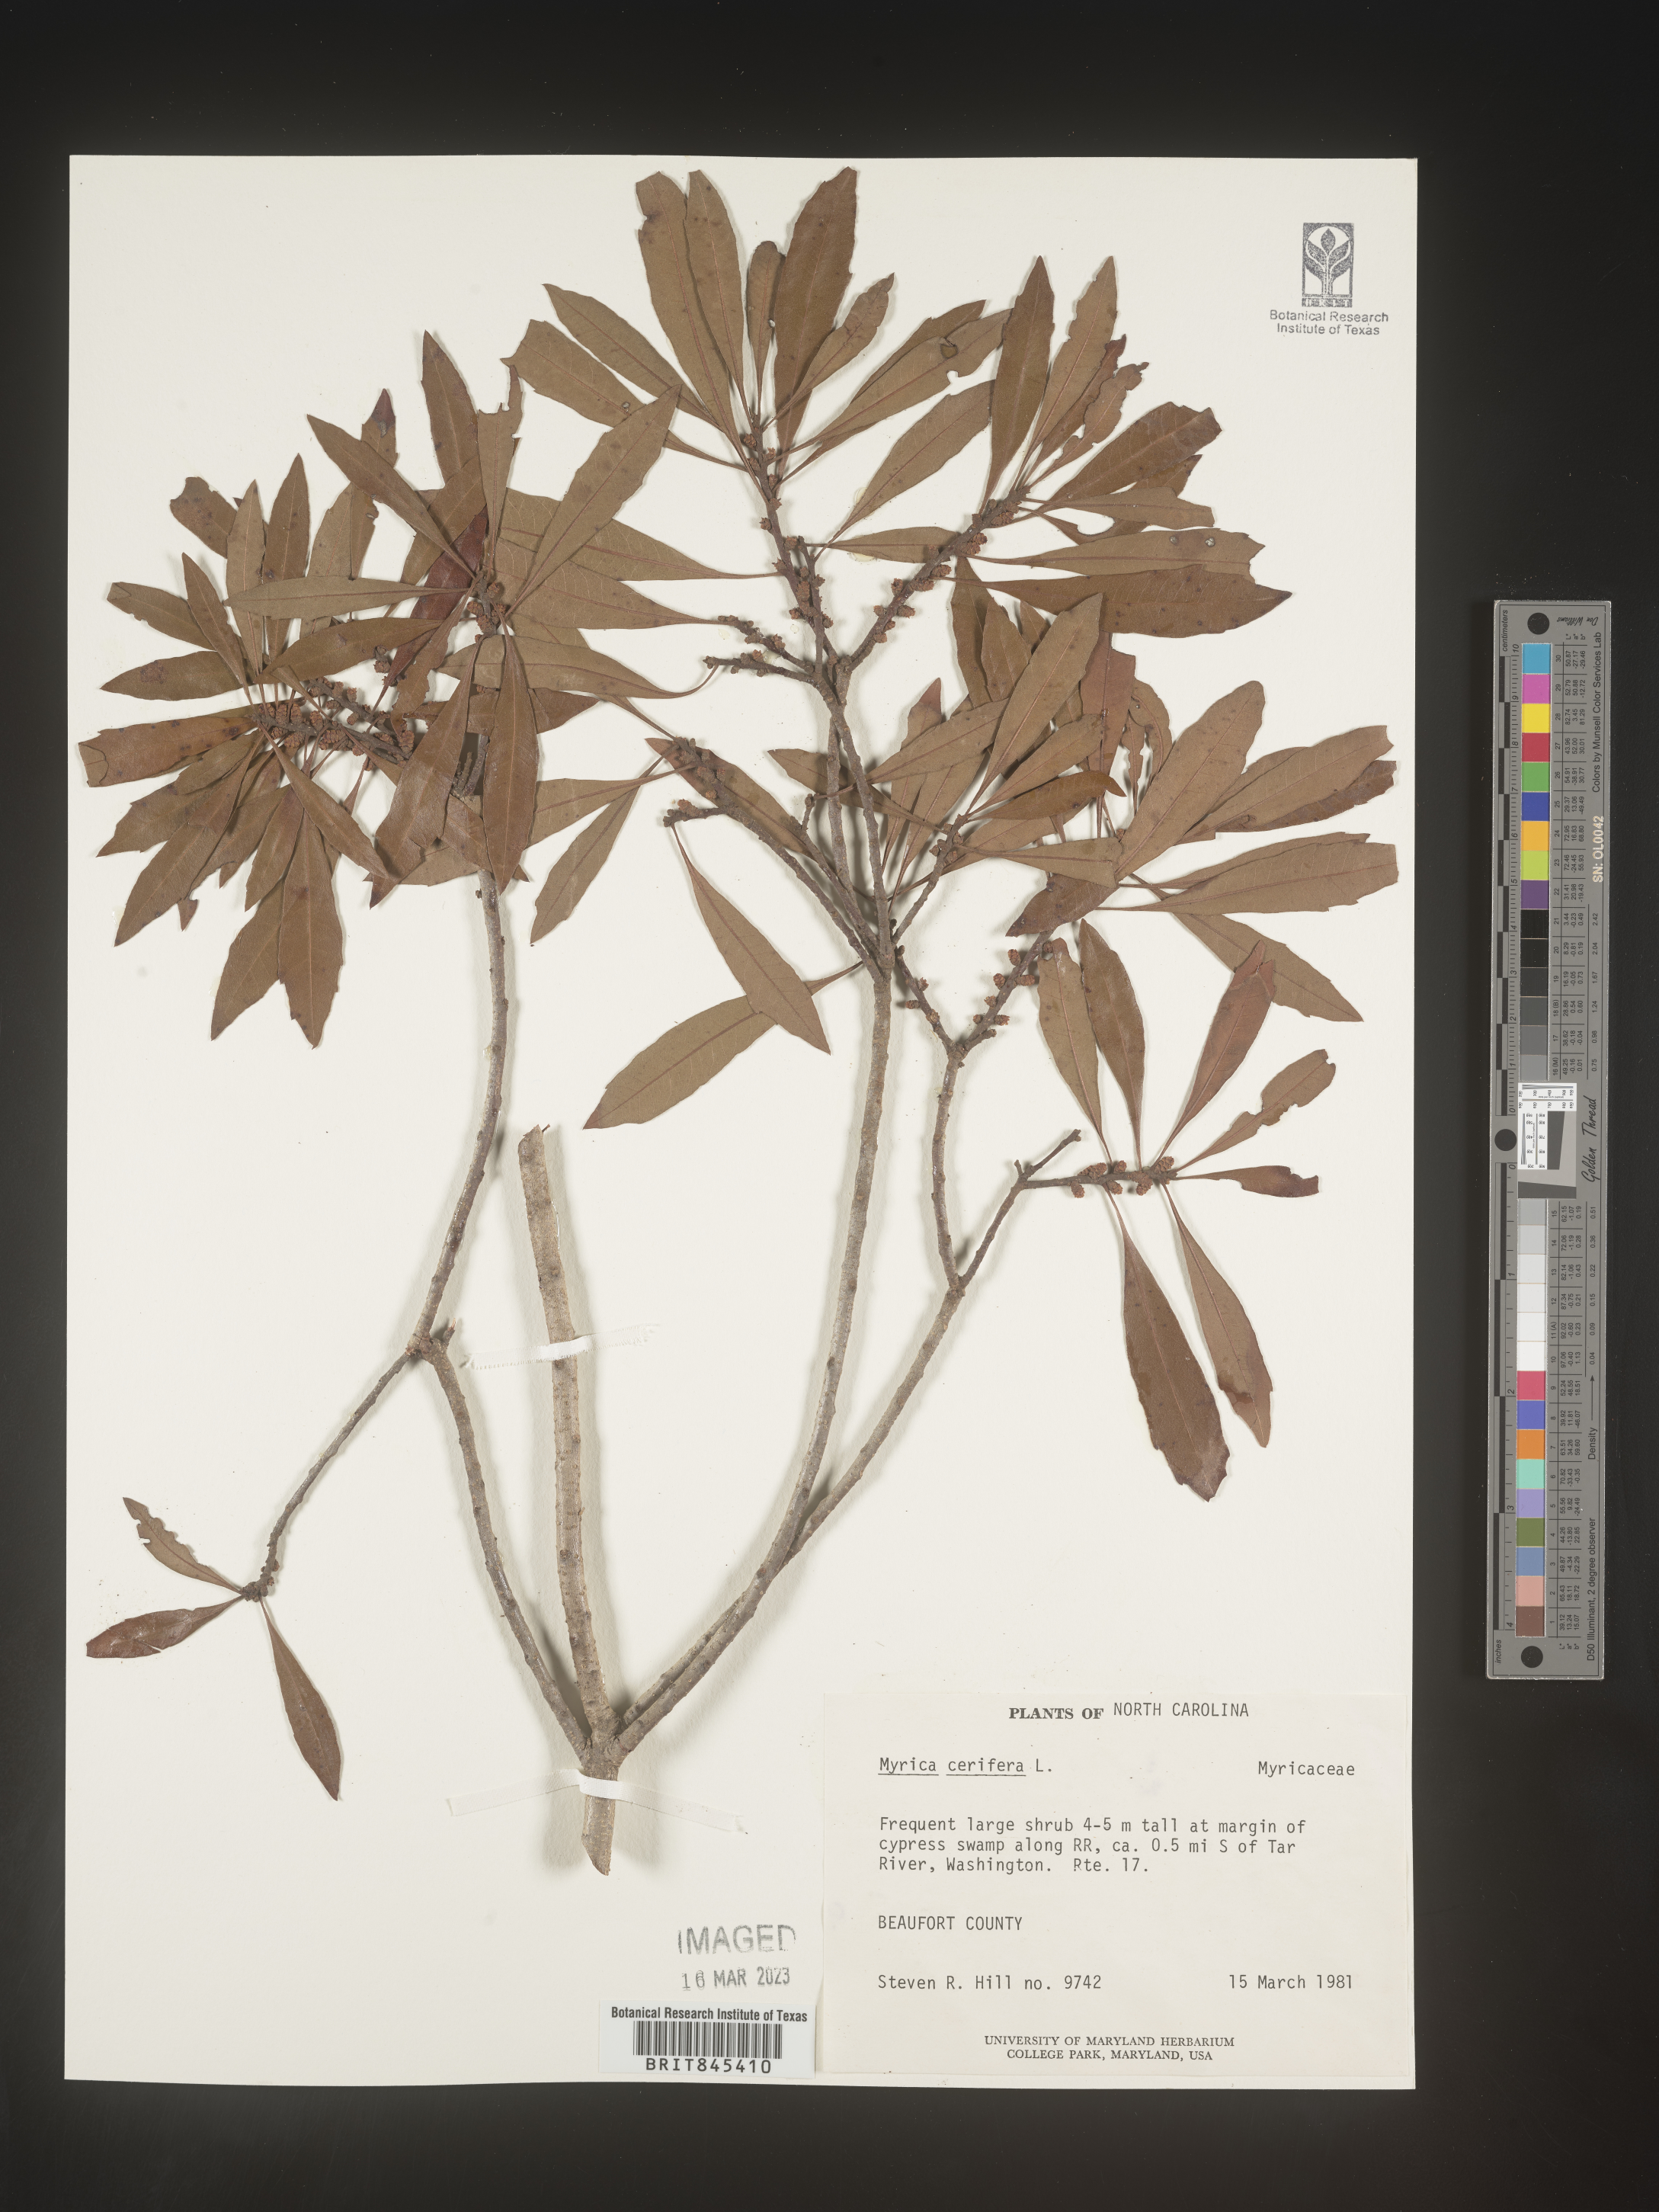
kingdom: Plantae
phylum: Tracheophyta
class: Magnoliopsida
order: Fagales
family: Myricaceae
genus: Morella
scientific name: Morella cerifera
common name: Wax myrtle
